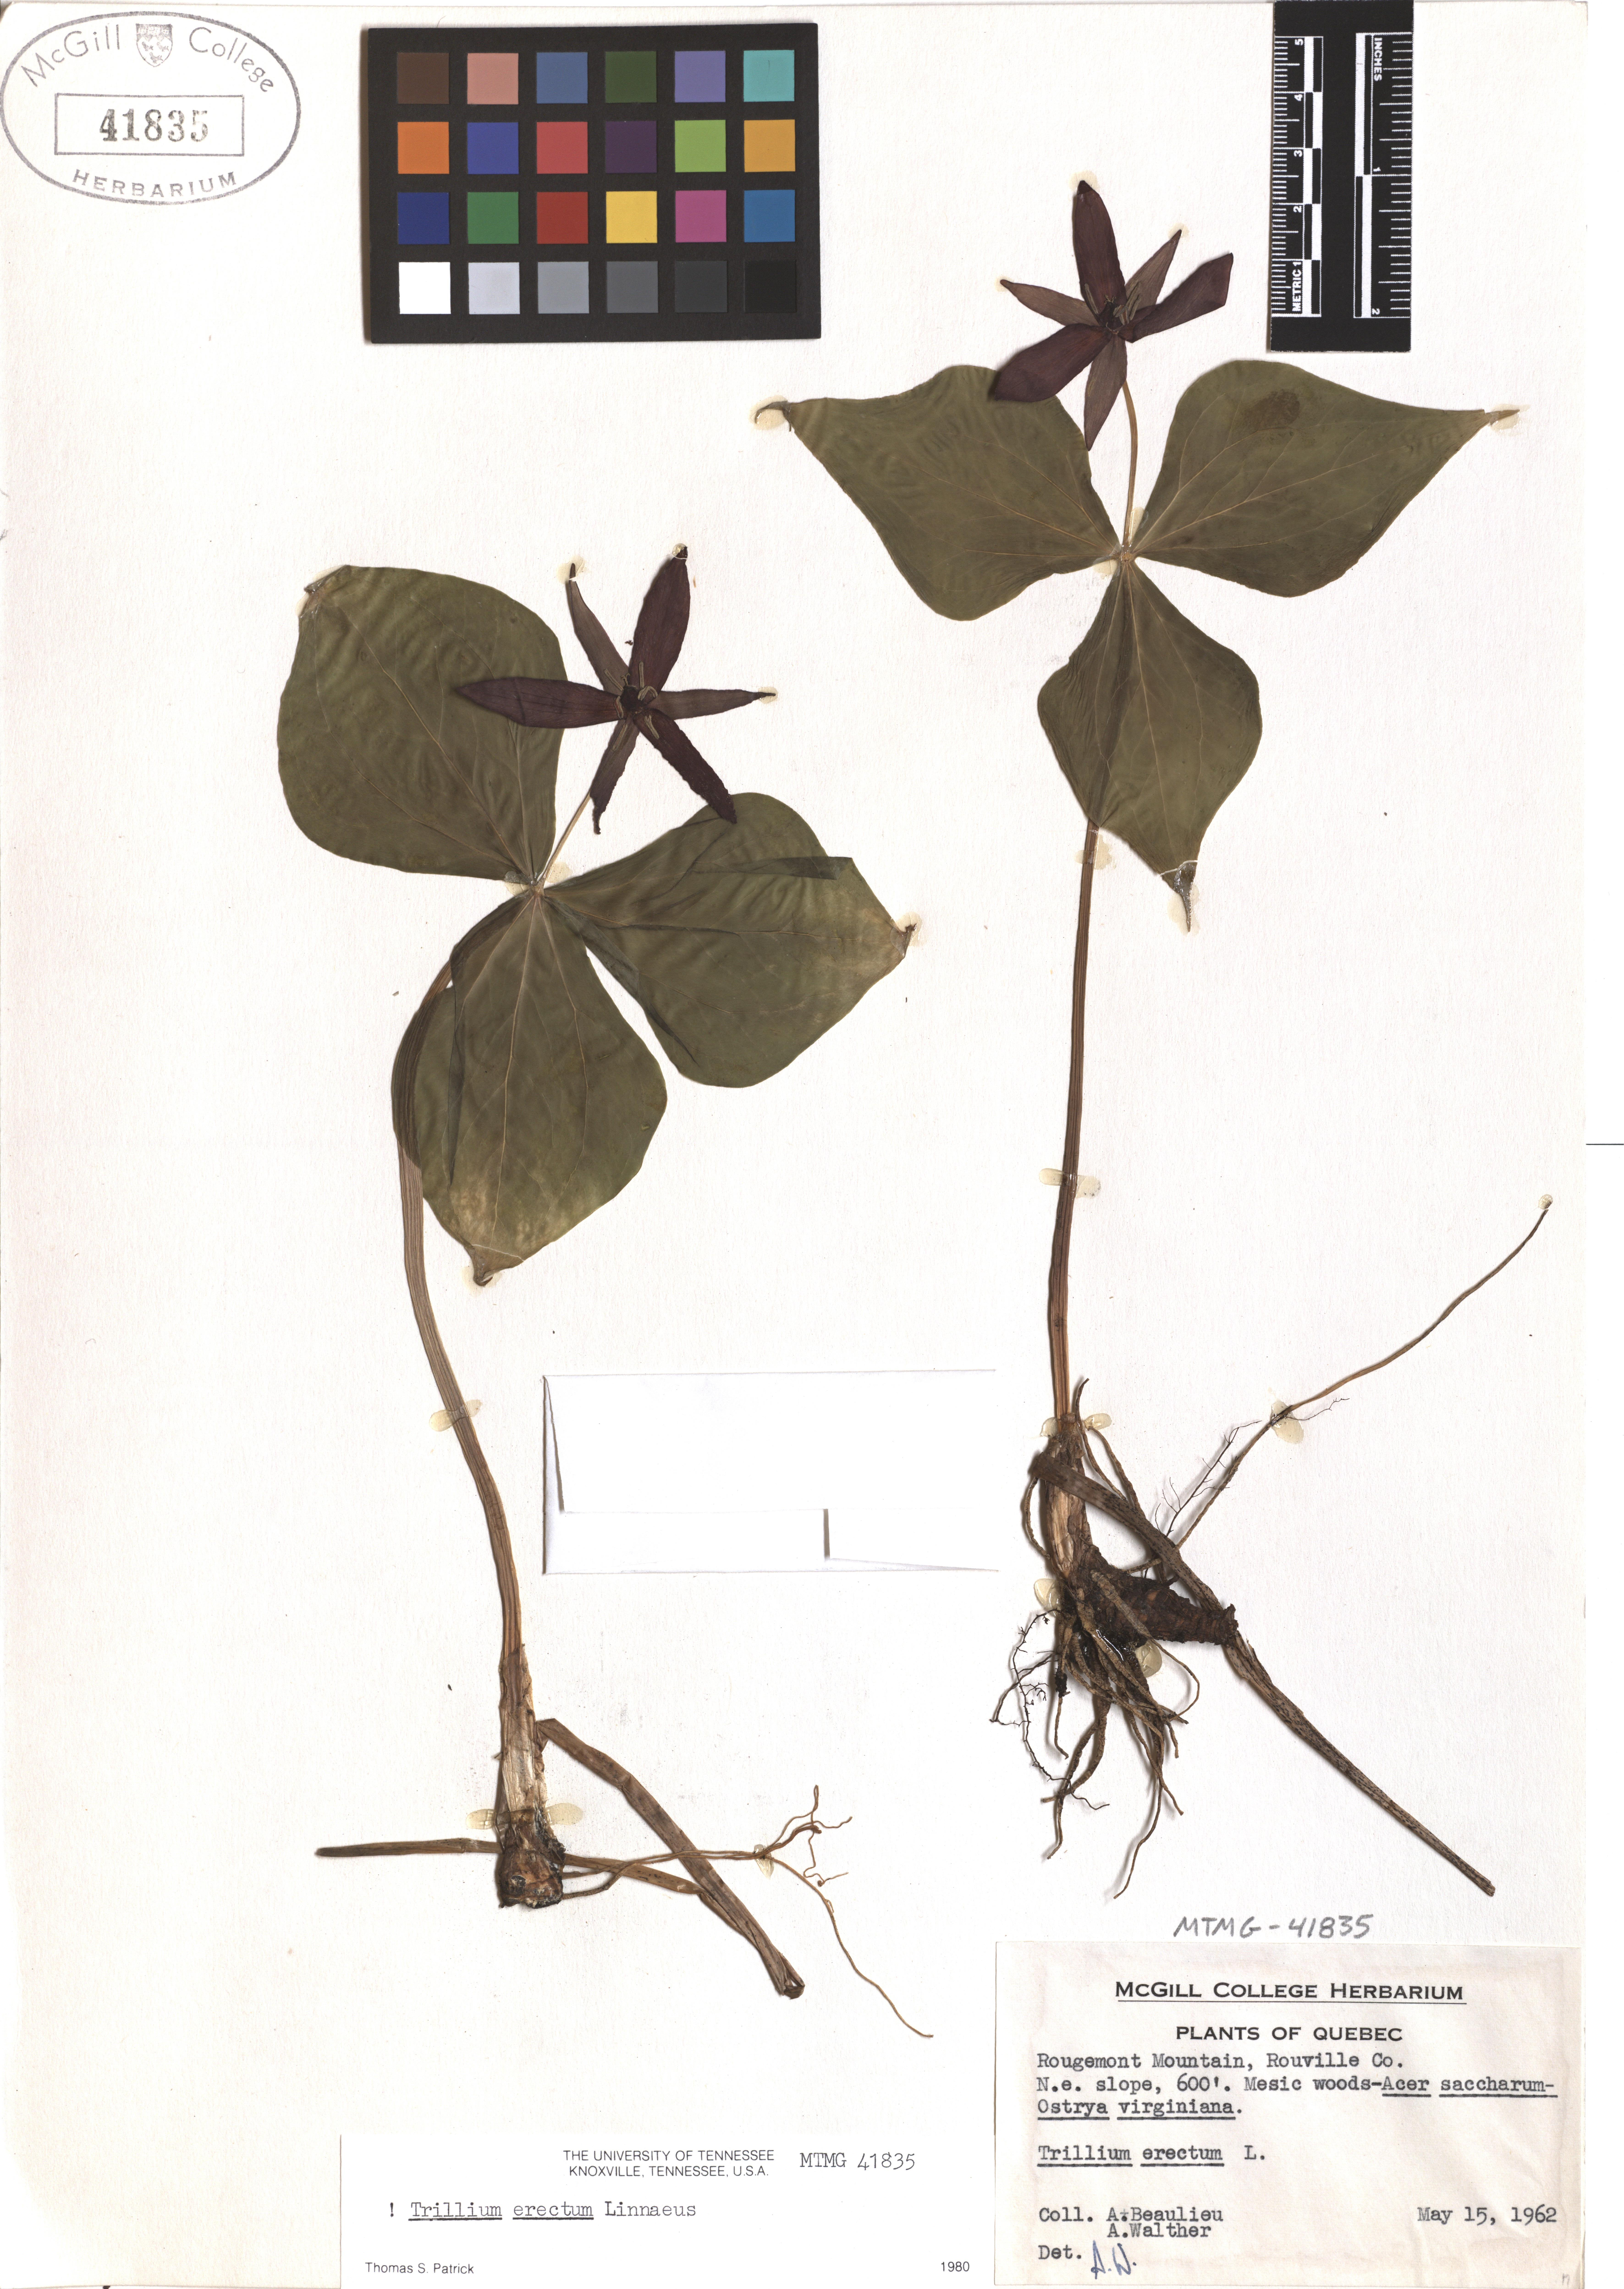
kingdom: Plantae
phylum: Tracheophyta
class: Liliopsida
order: Liliales
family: Melanthiaceae
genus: Trillium
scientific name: Trillium erectum
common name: Purple trillium
